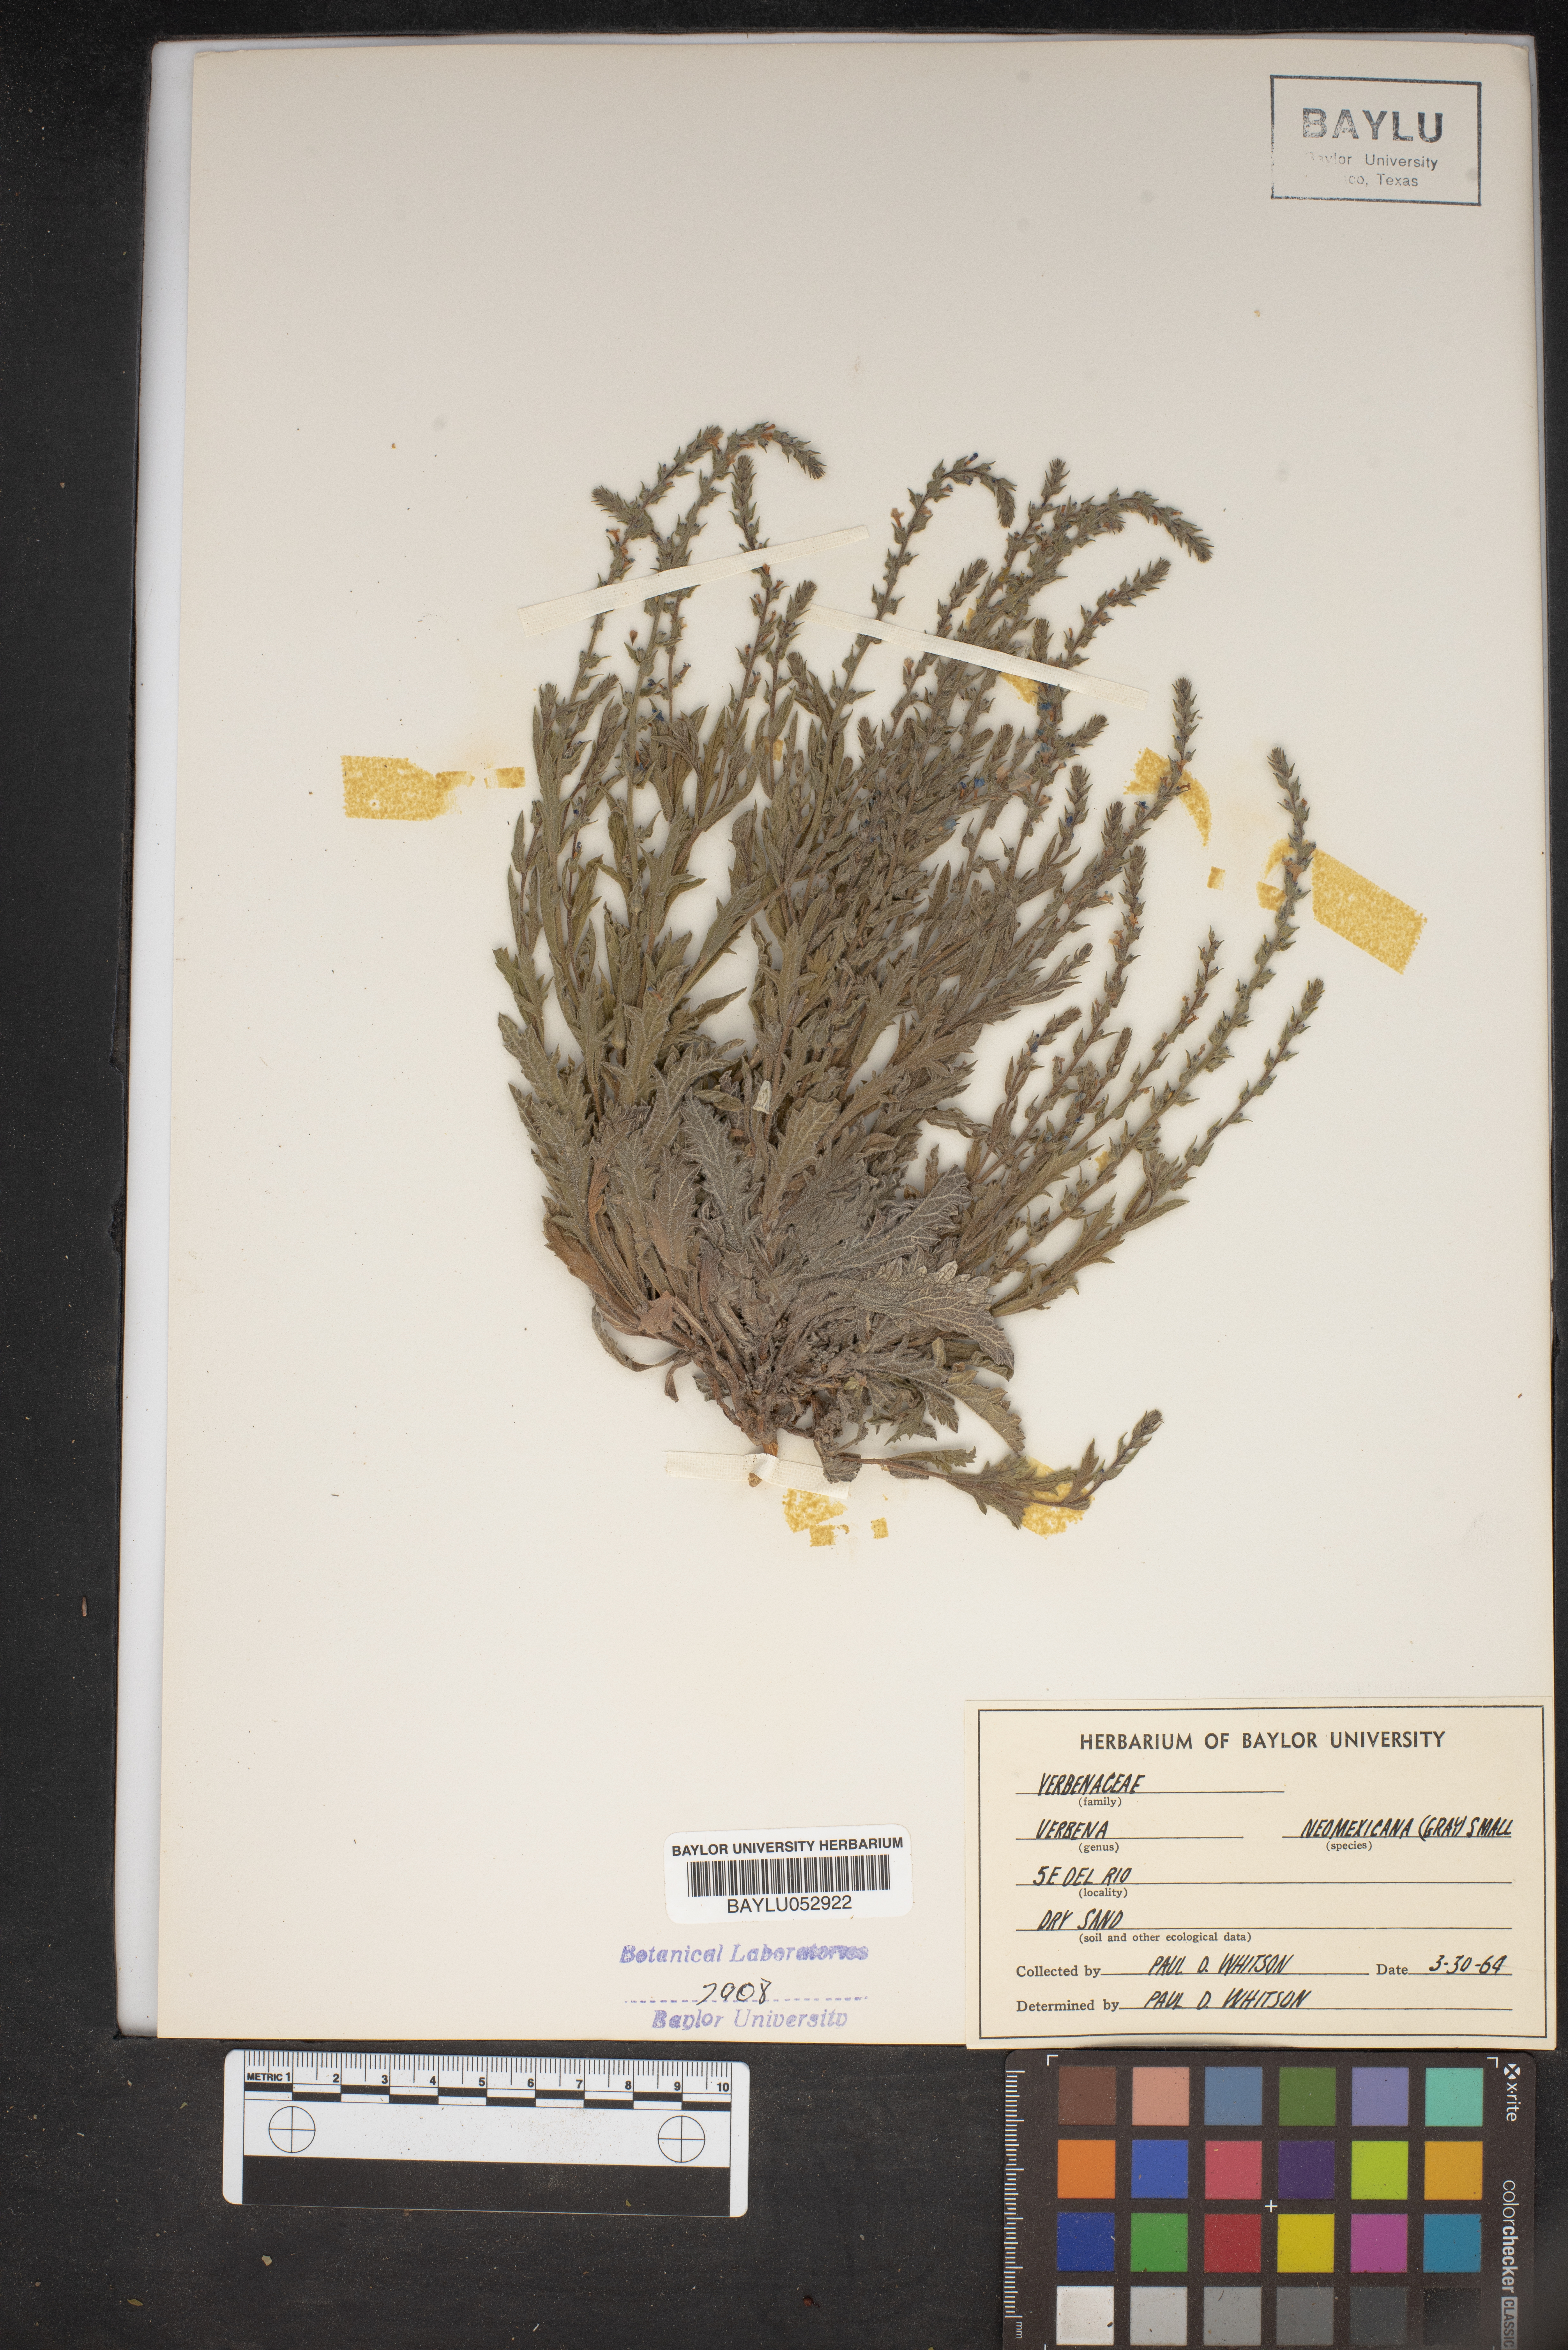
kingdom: Plantae
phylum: Tracheophyta
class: Magnoliopsida
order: Lamiales
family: Verbenaceae
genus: Verbena
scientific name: Verbena neomexicana
